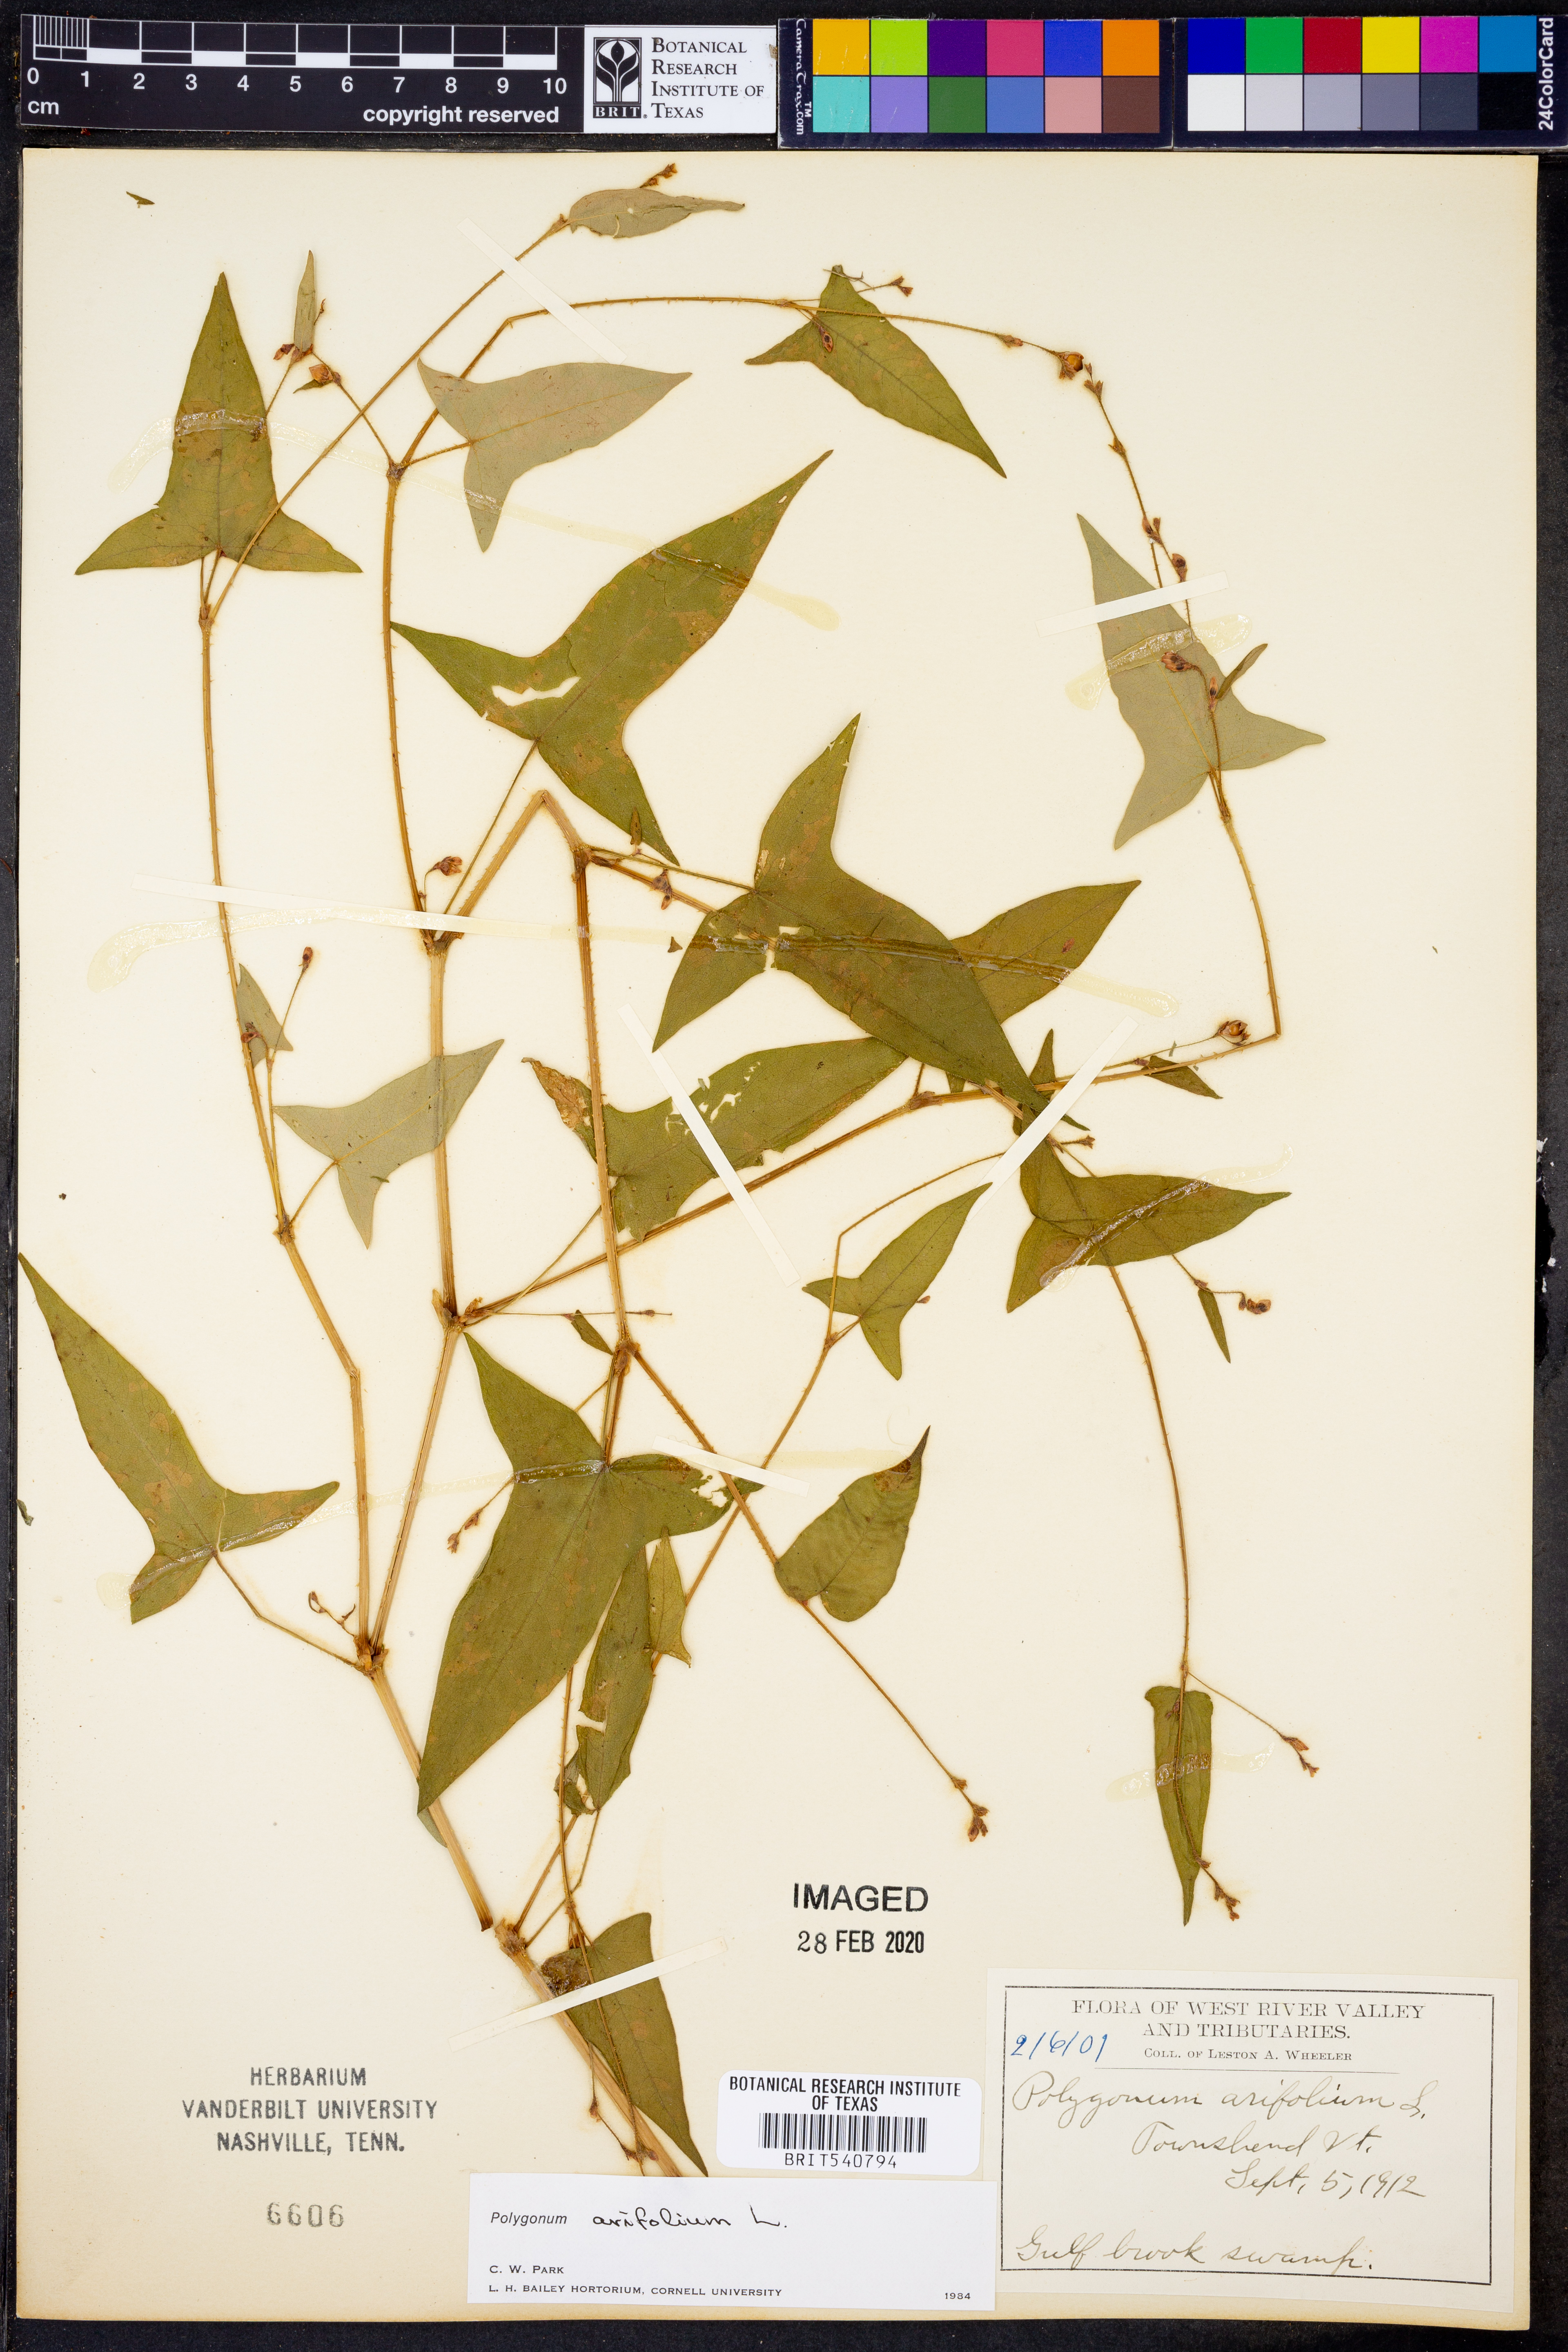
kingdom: Plantae
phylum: Tracheophyta
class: Magnoliopsida
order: Caryophyllales
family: Polygonaceae
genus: Persicaria
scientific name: Persicaria arifolia
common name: Halberd-leaved tear-thumb
